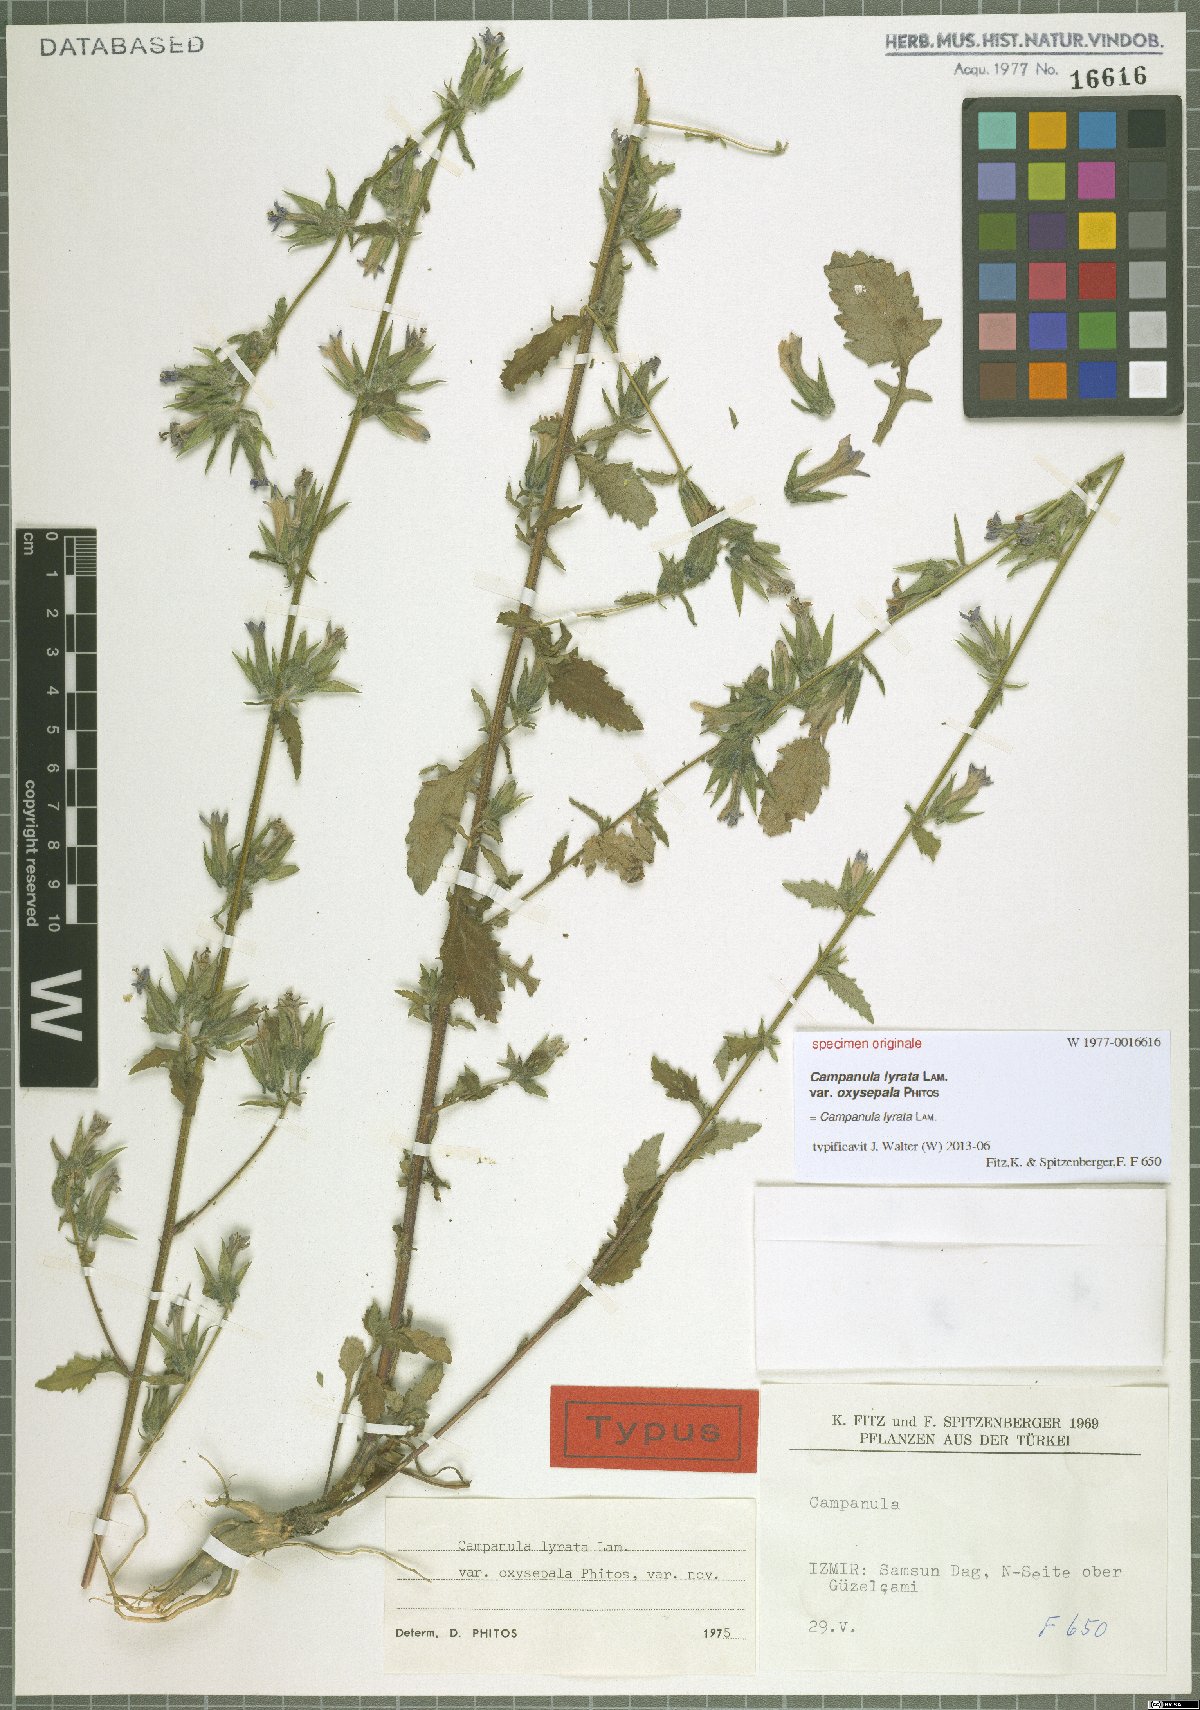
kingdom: Plantae
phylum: Tracheophyta
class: Magnoliopsida
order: Asterales
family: Campanulaceae
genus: Campanula
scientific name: Campanula lyrata
